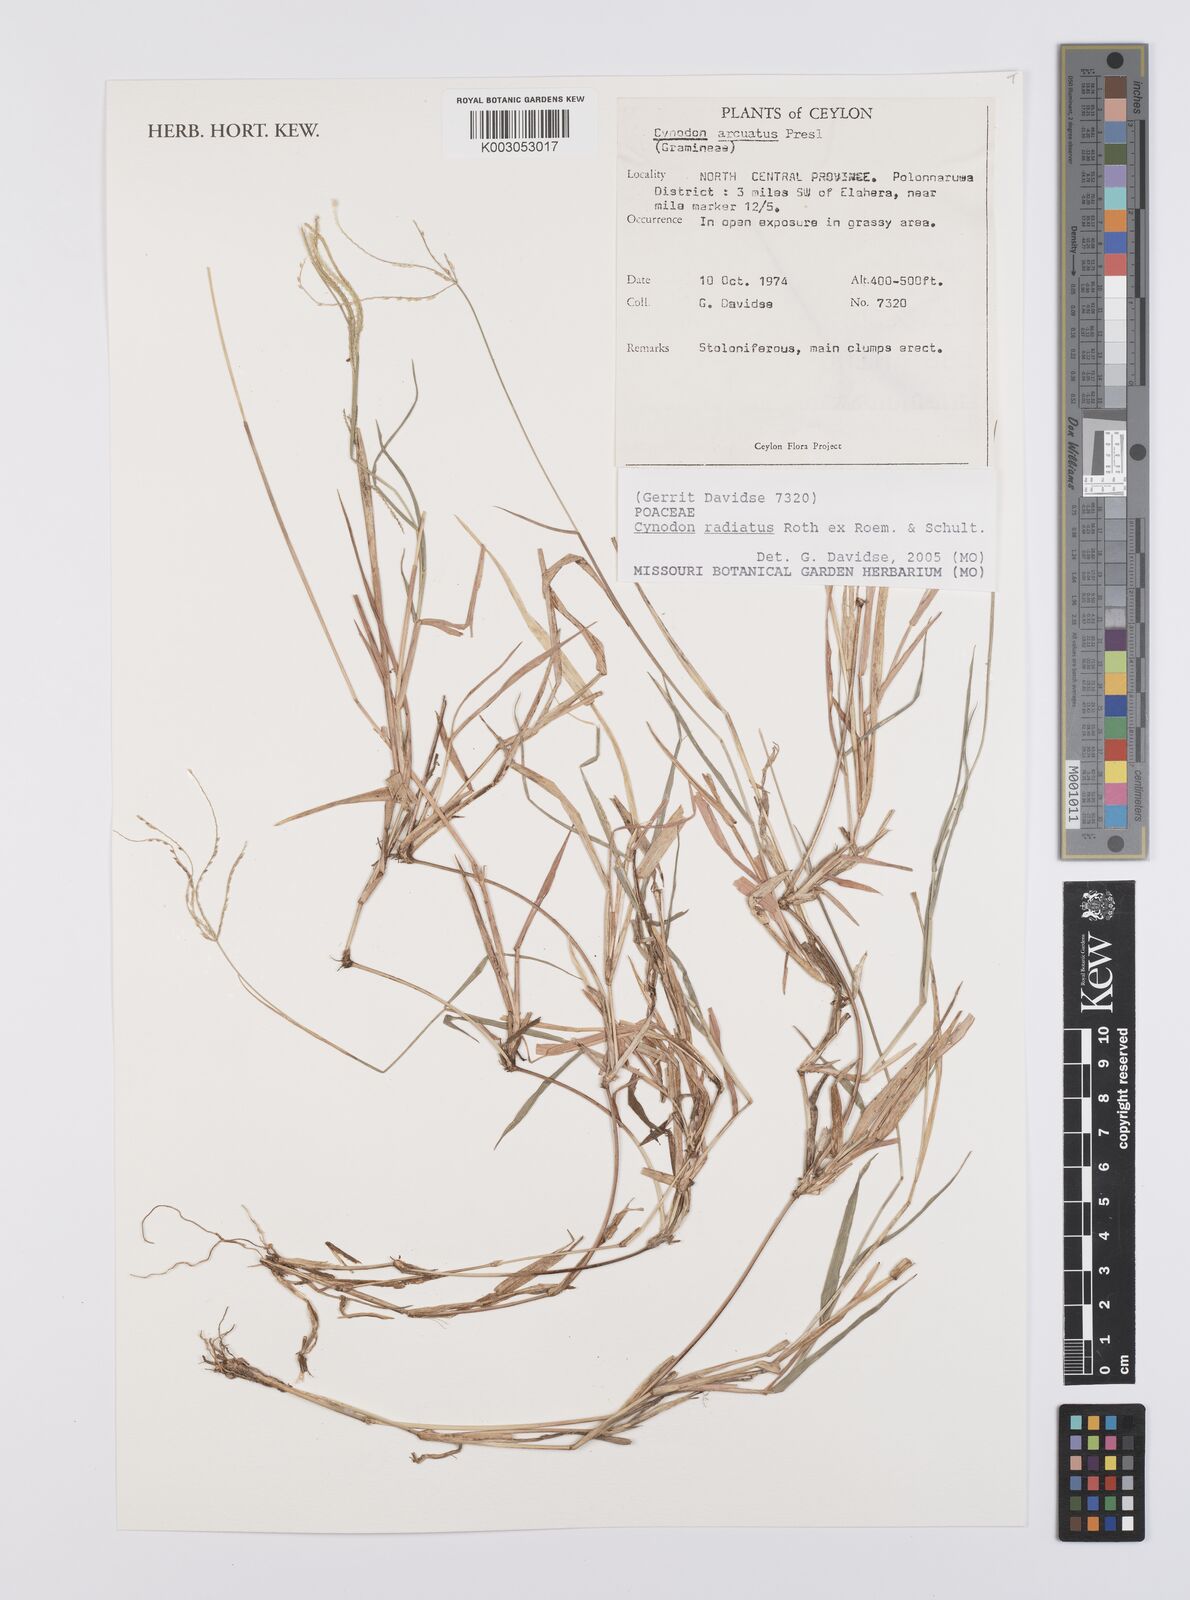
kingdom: Plantae
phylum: Tracheophyta
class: Liliopsida
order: Poales
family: Poaceae
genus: Cynodon
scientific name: Cynodon radiatus
